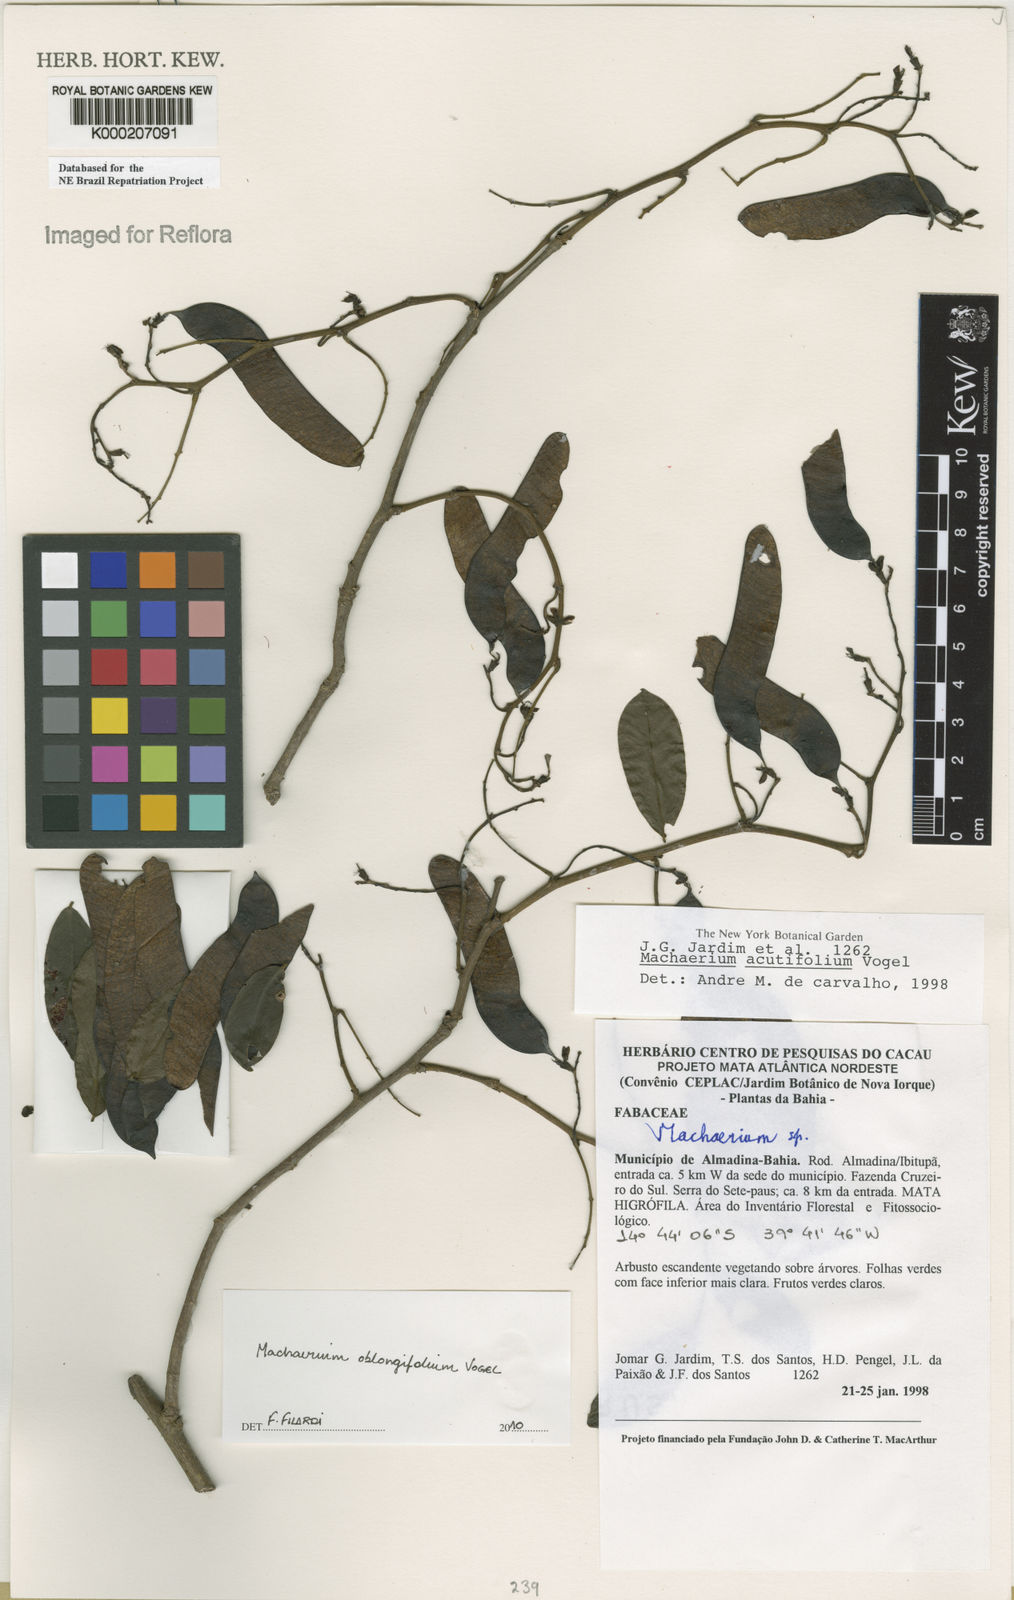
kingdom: Plantae
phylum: Tracheophyta
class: Magnoliopsida
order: Fabales
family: Fabaceae
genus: Machaerium
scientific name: Machaerium
